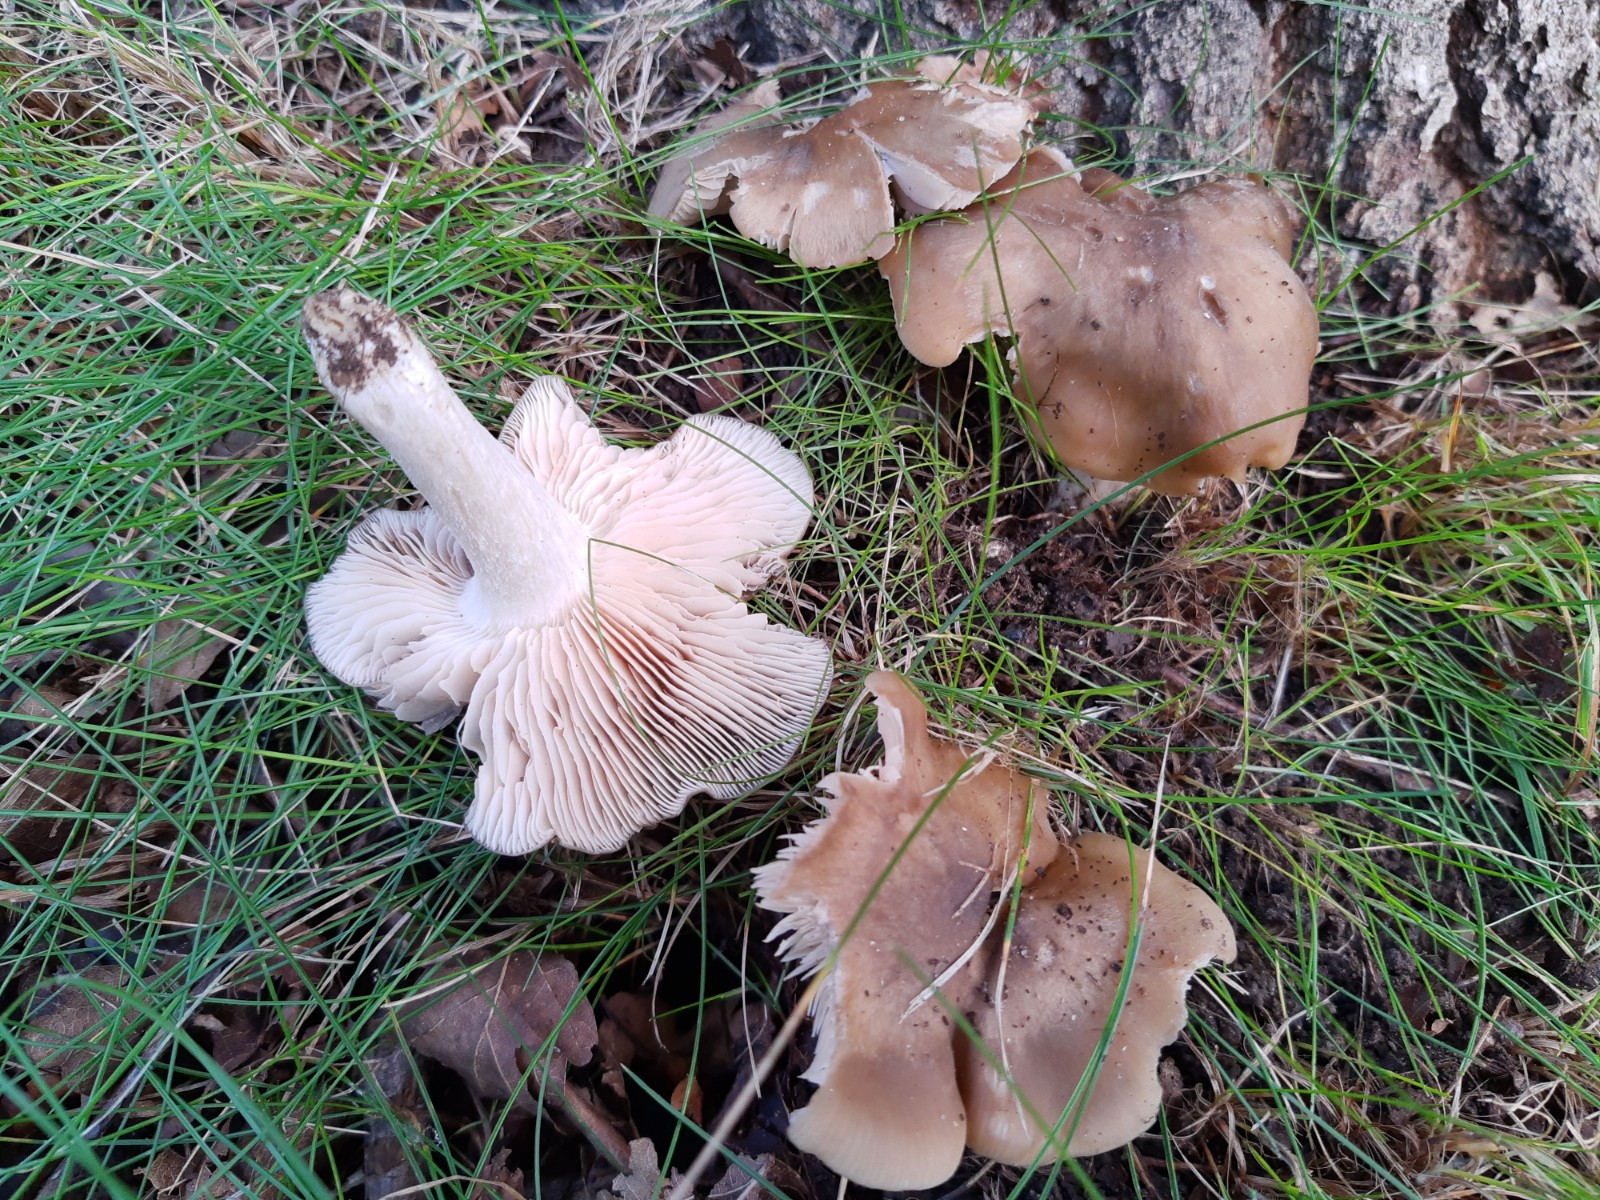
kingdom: Fungi
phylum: Basidiomycota
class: Agaricomycetes
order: Agaricales
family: Entolomataceae
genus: Entoloma
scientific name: Entoloma lividoalbum
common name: lysstokket rødblad
